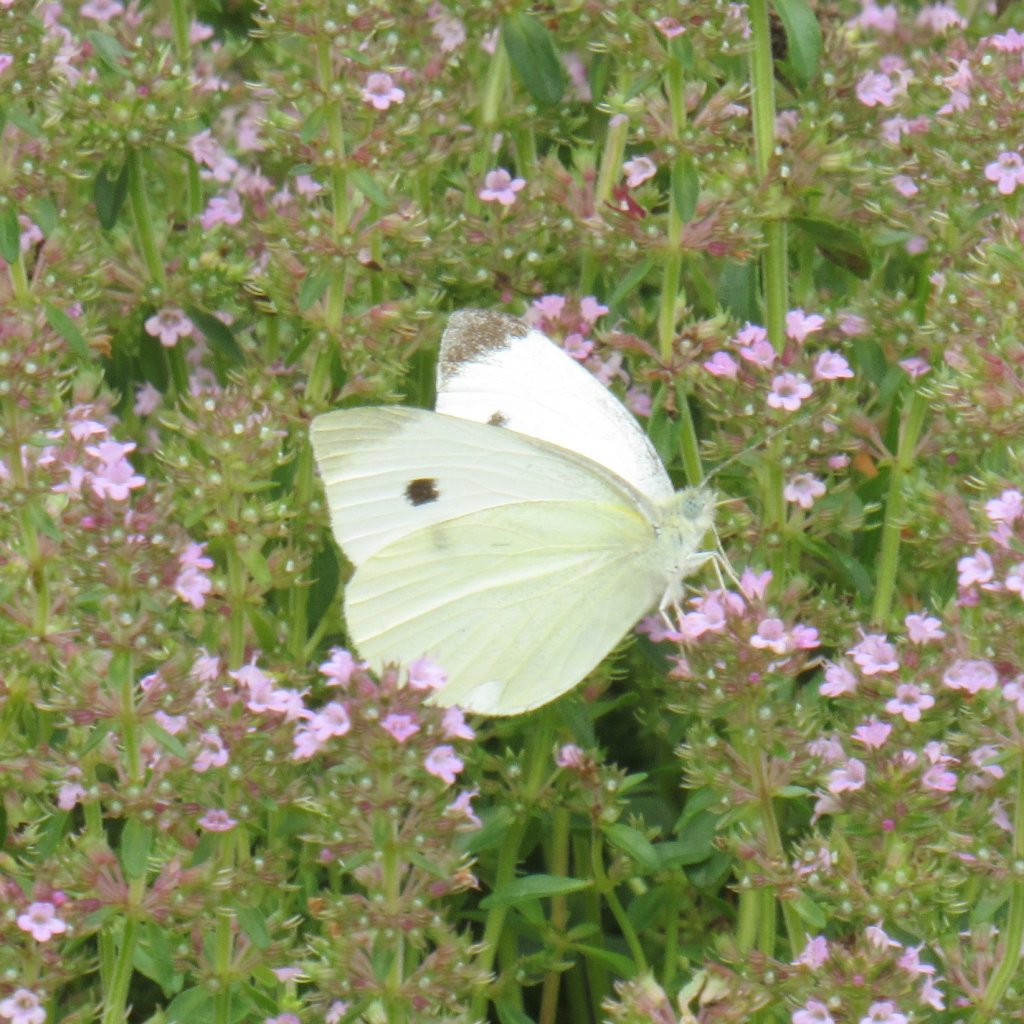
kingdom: Animalia
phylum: Arthropoda
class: Insecta
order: Lepidoptera
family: Pieridae
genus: Pieris
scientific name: Pieris rapae
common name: Cabbage White
